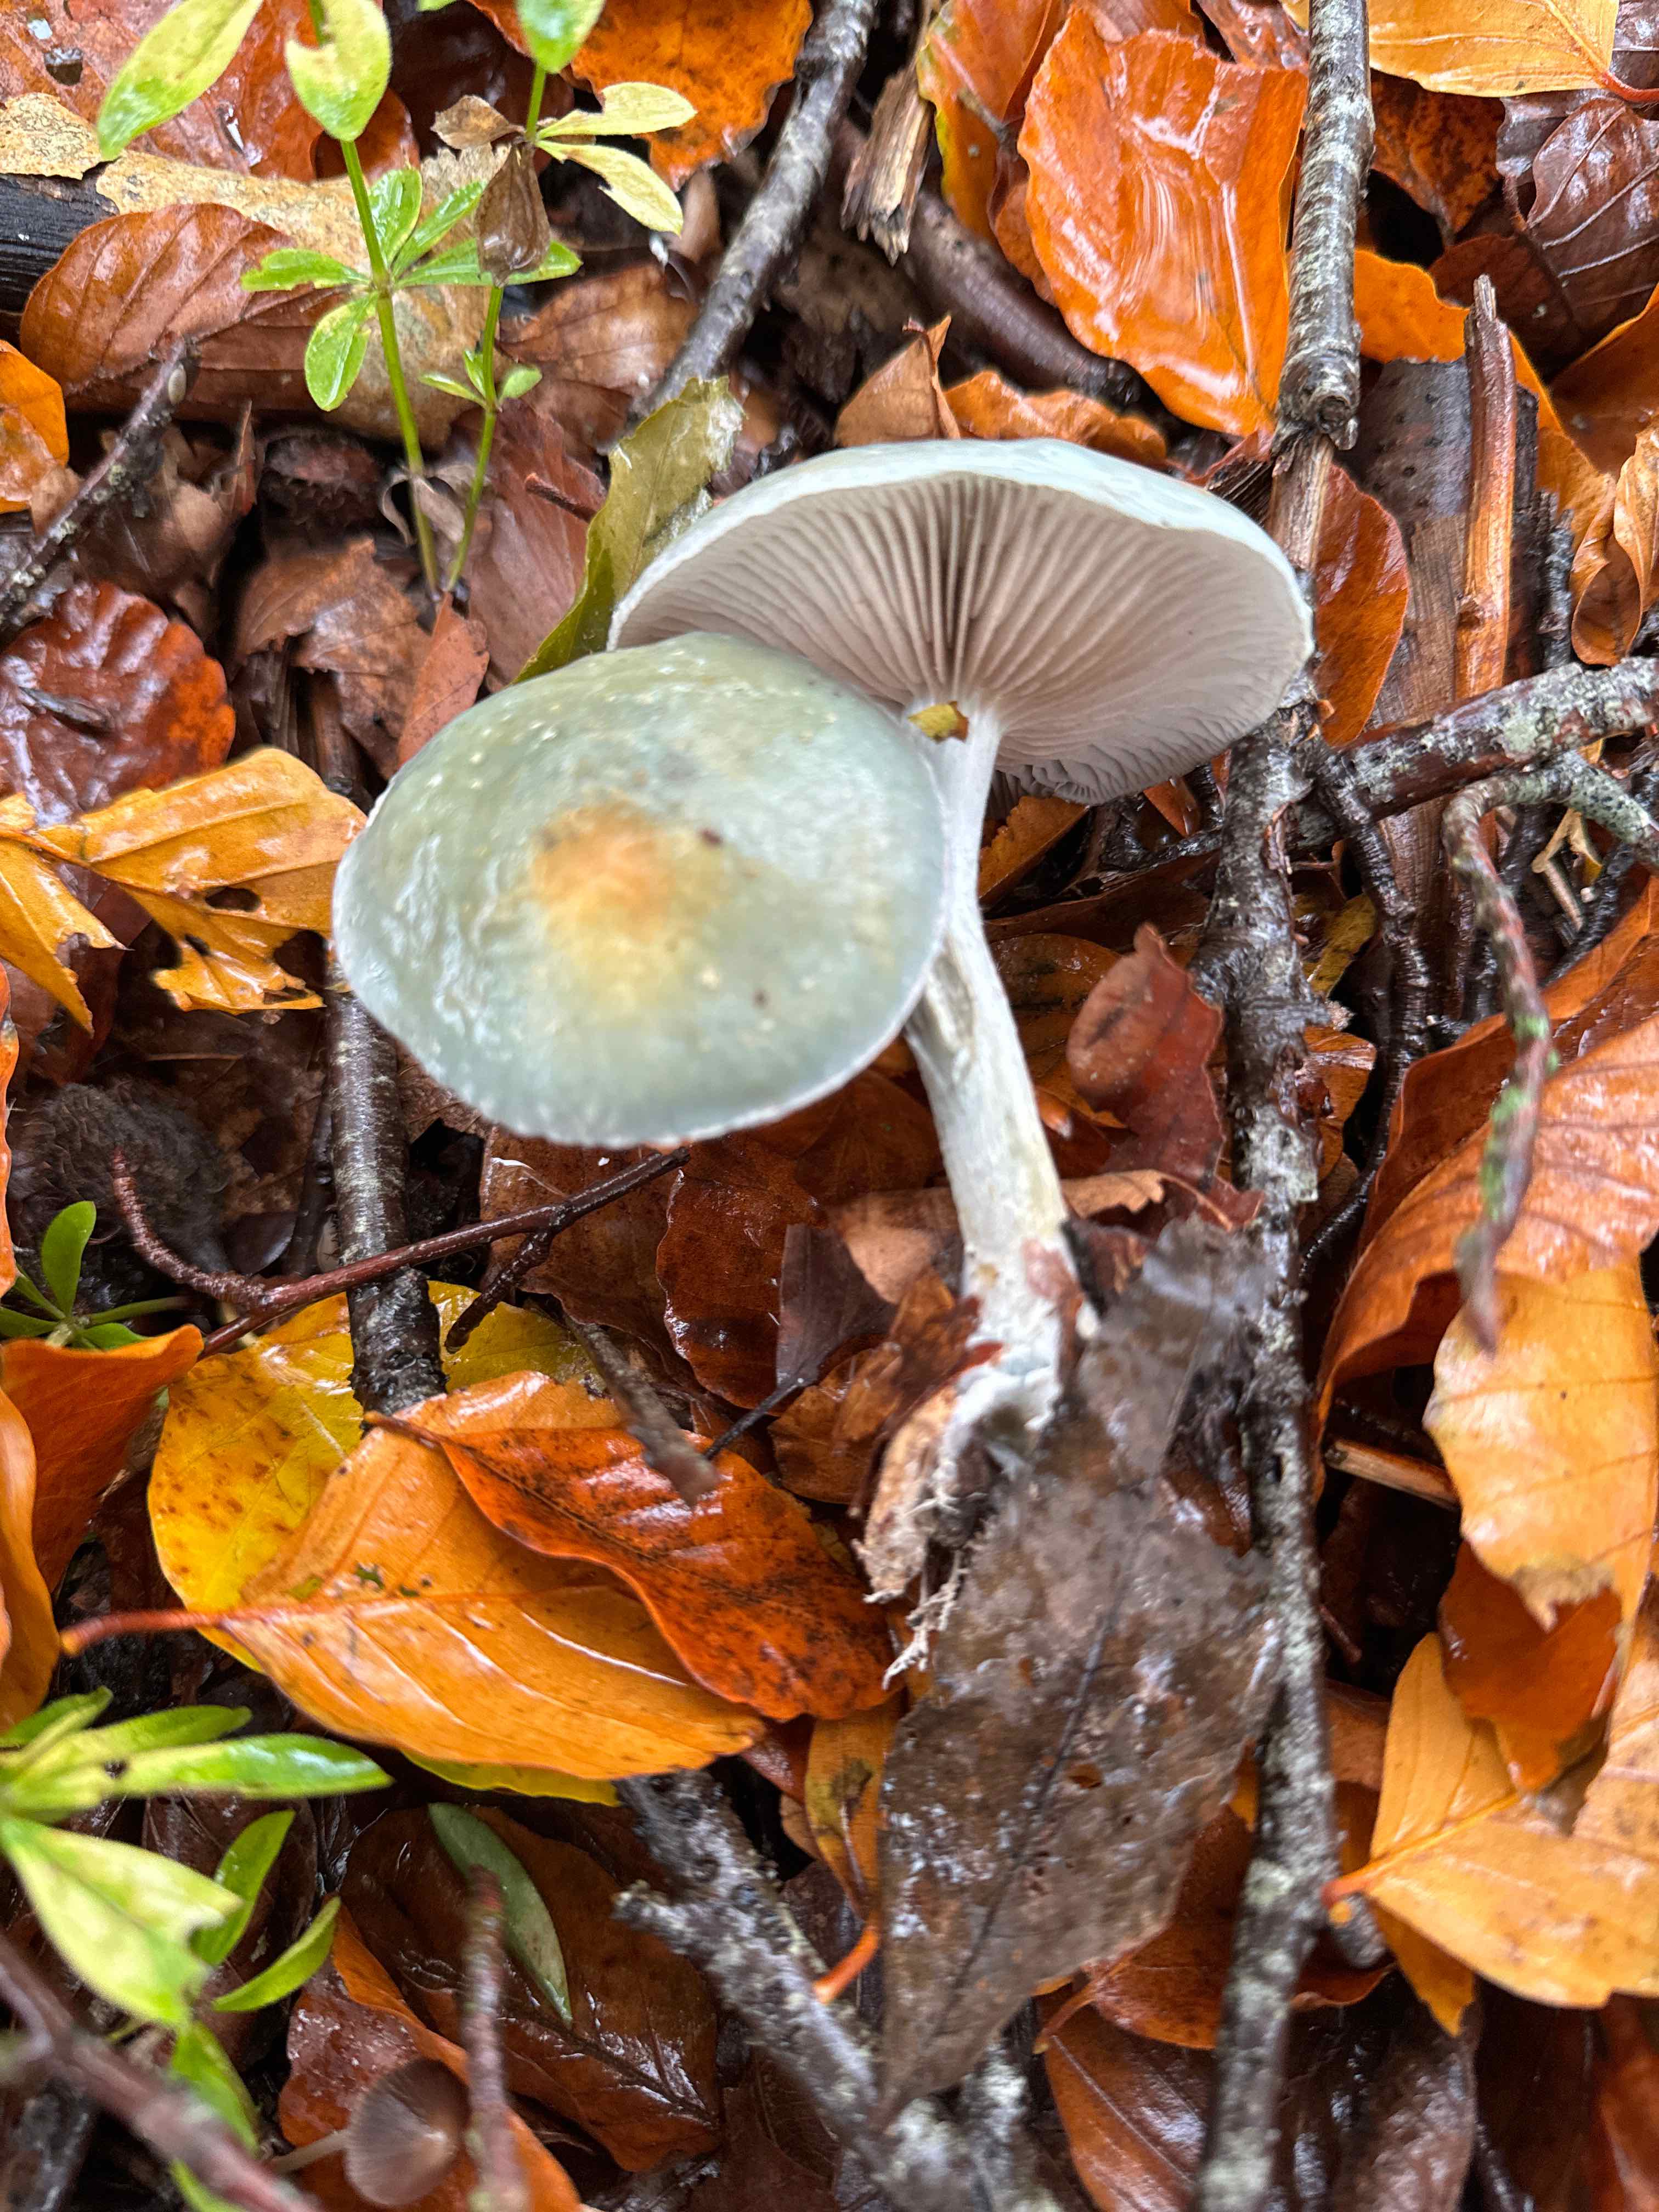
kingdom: Fungi
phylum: Basidiomycota
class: Agaricomycetes
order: Agaricales
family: Strophariaceae
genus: Stropharia
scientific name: Stropharia cyanea
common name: blågrøn bredblad
